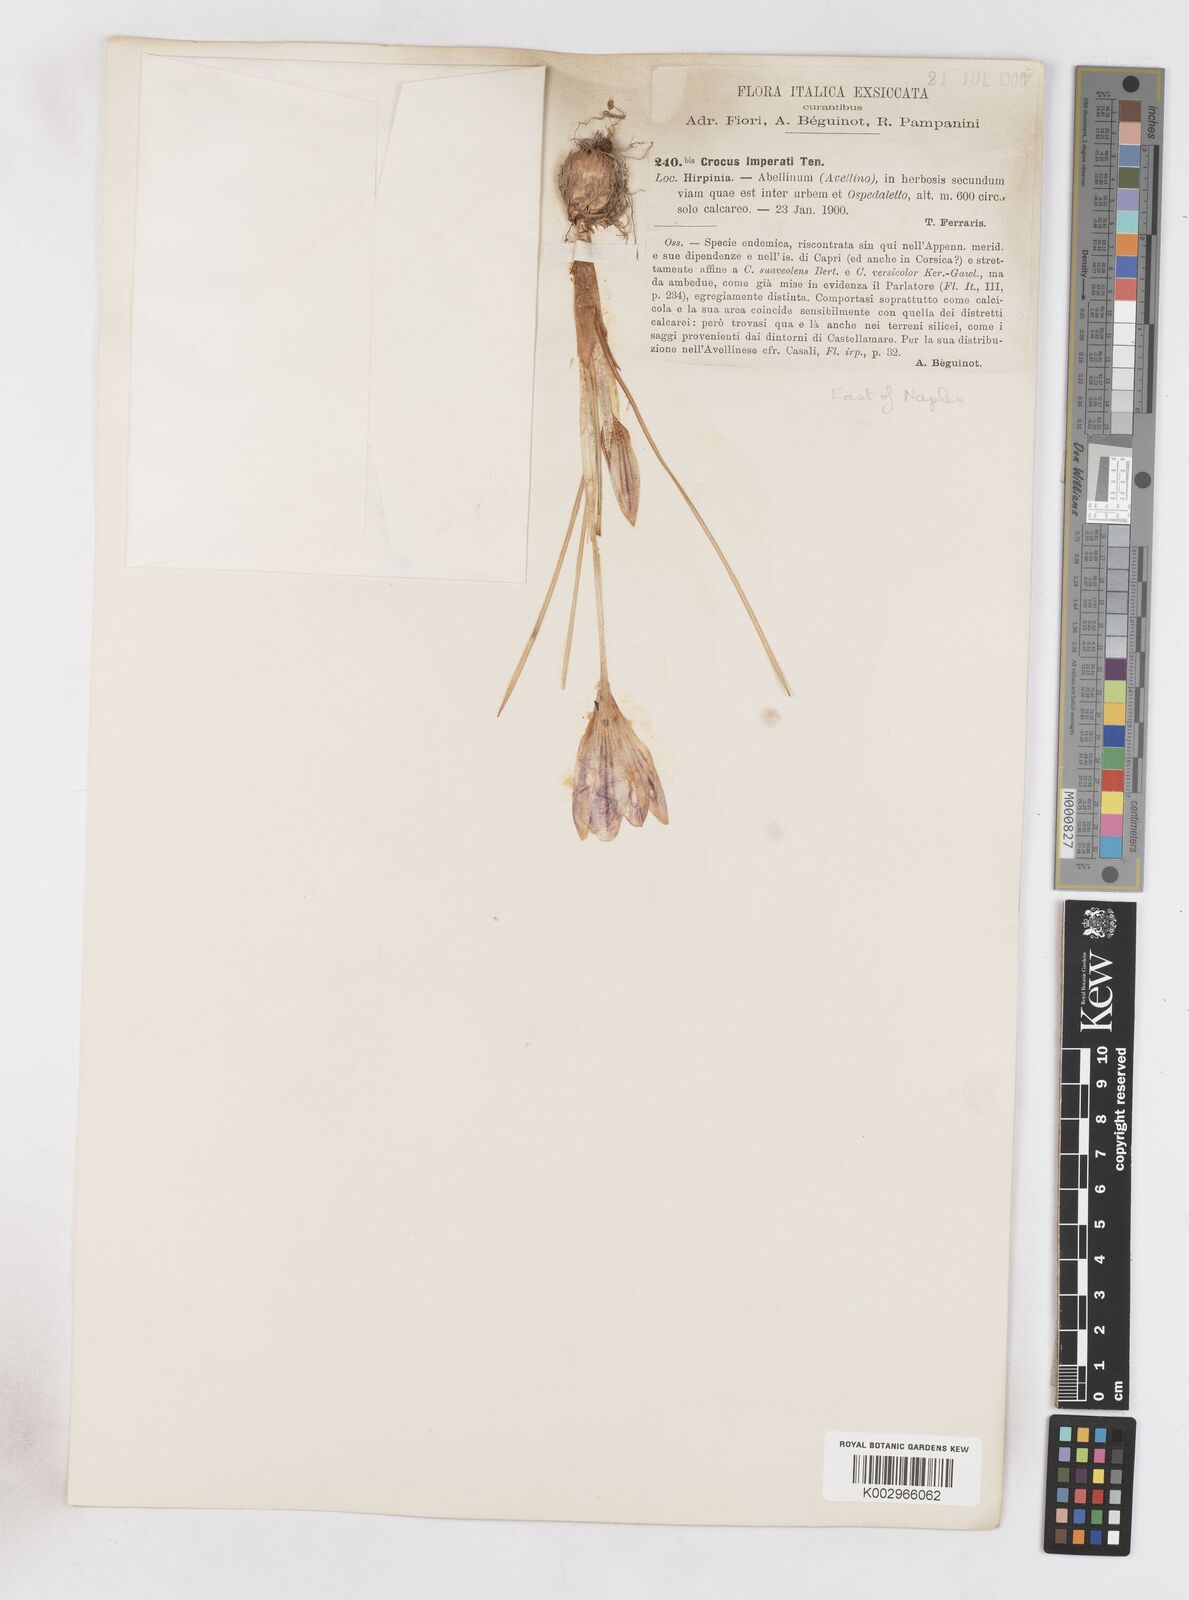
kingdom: Plantae
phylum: Tracheophyta
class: Liliopsida
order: Asparagales
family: Iridaceae
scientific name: Iridaceae
